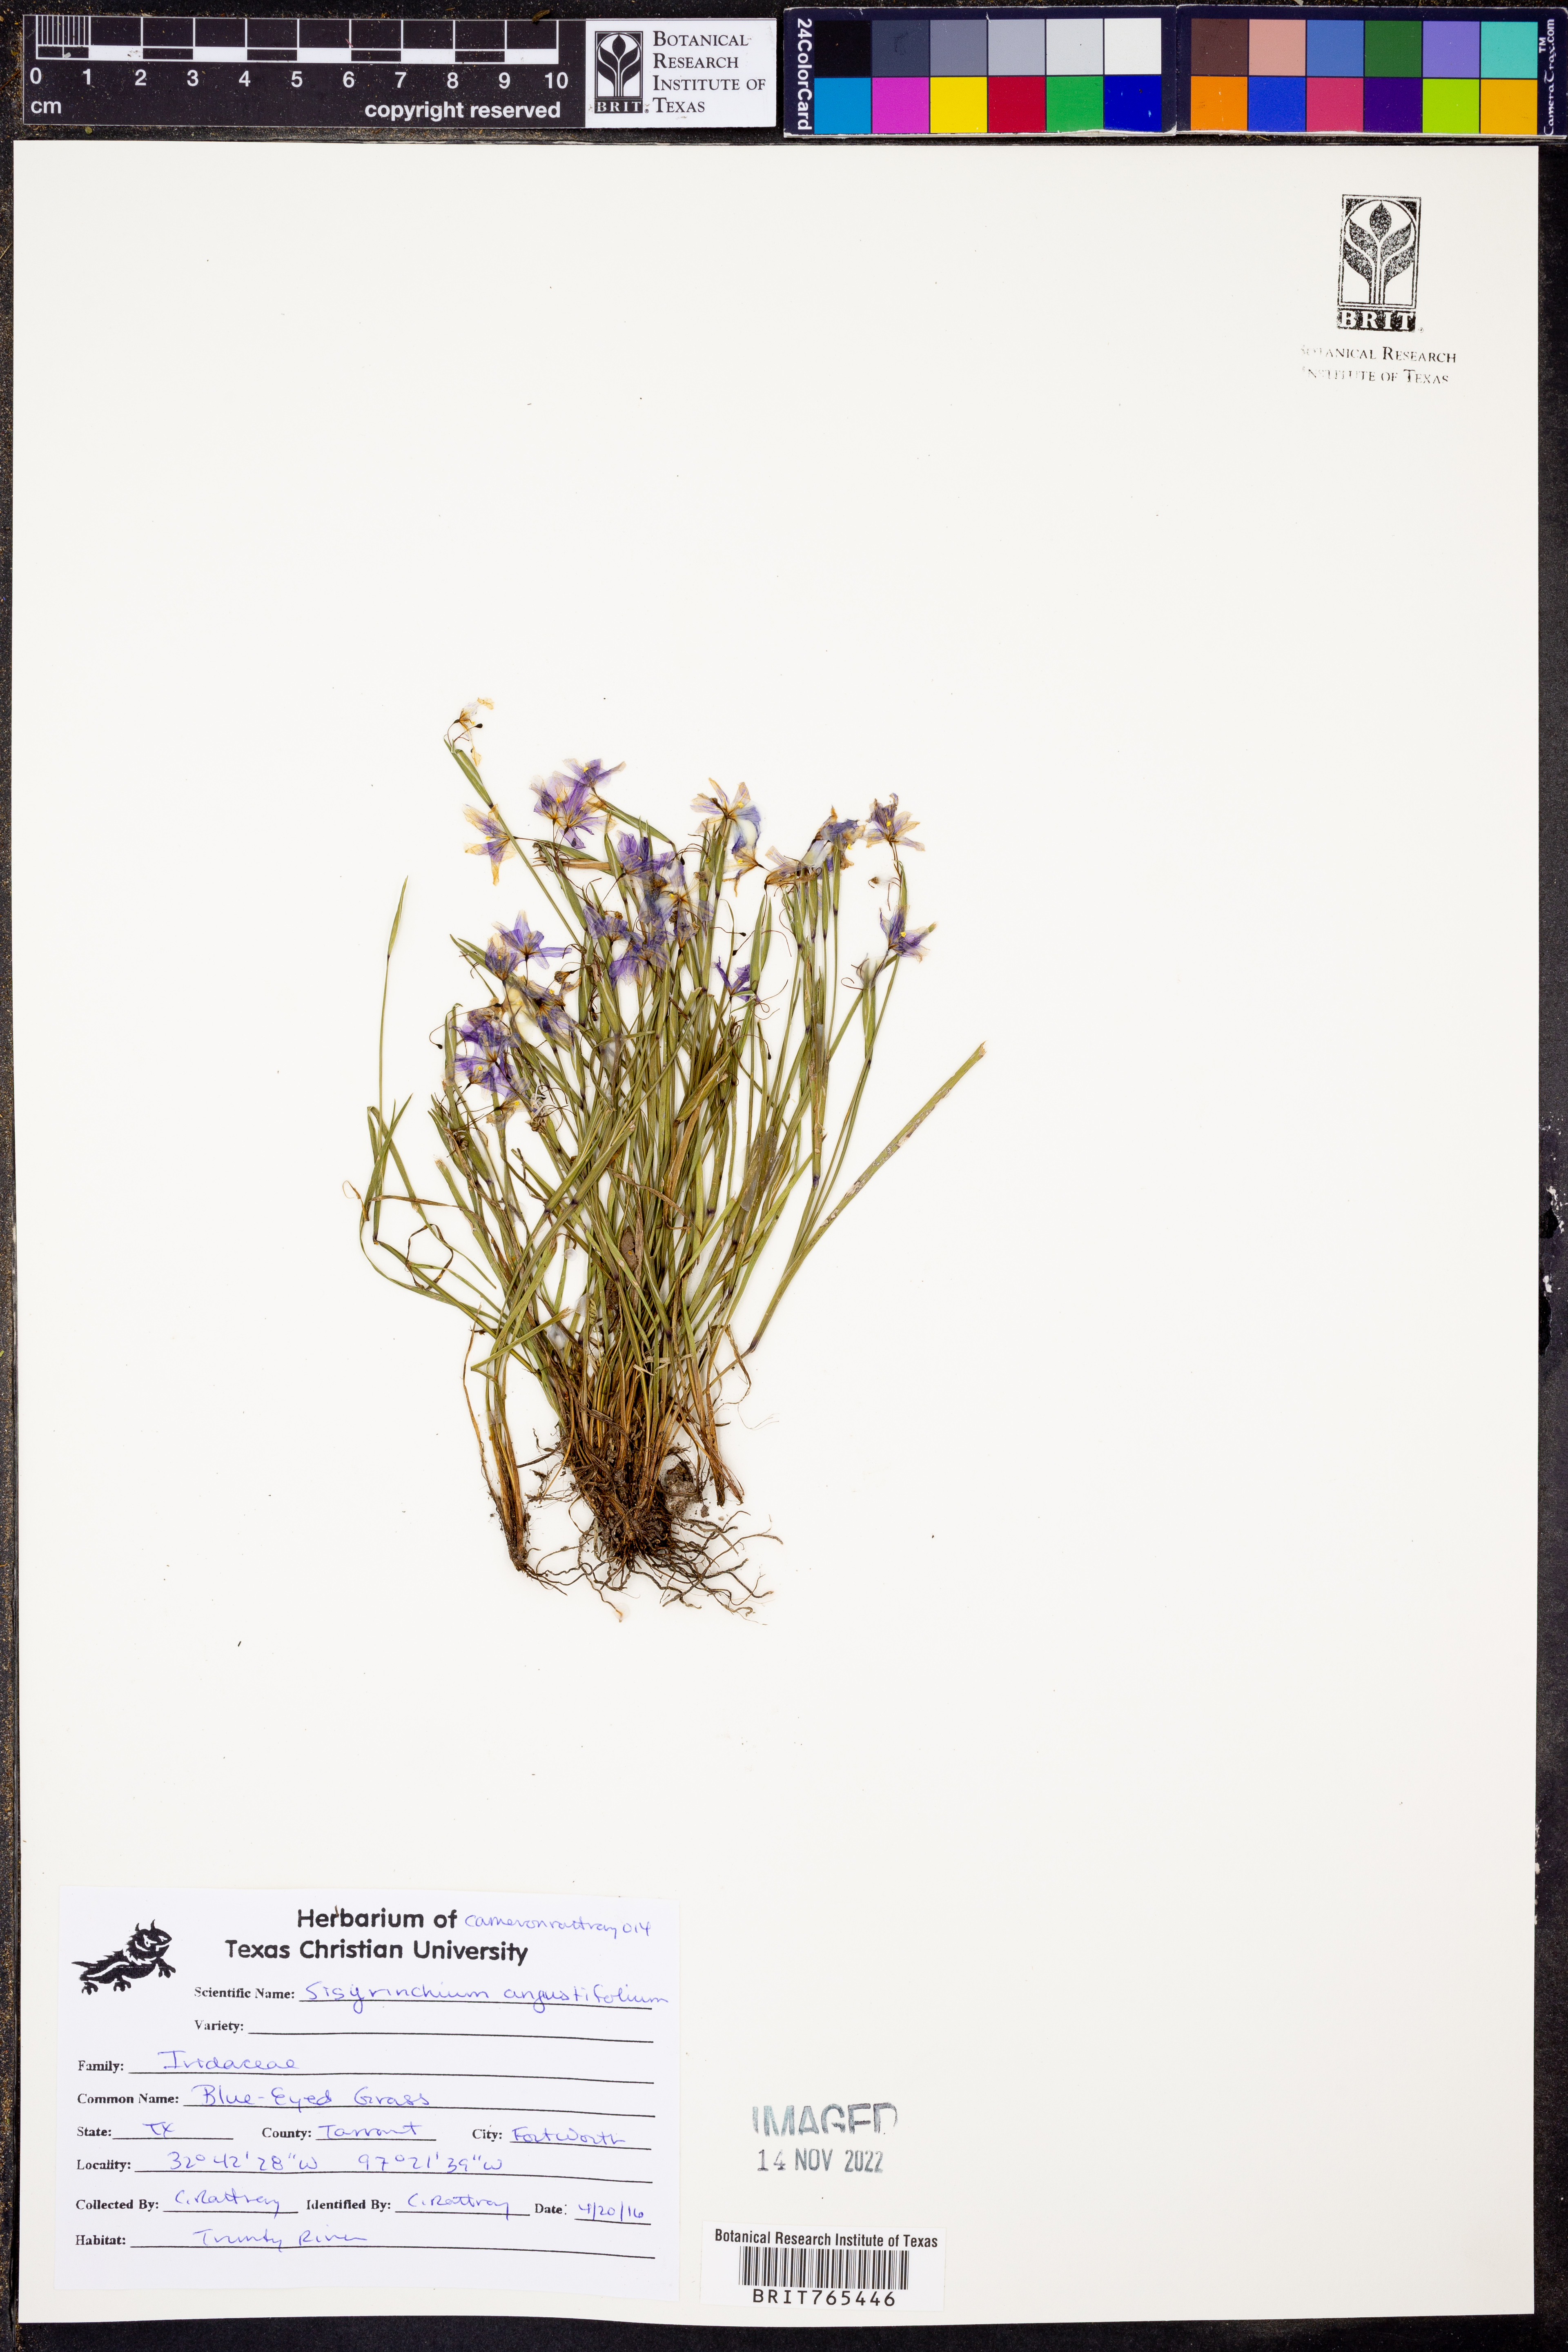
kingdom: Plantae
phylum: Tracheophyta
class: Liliopsida
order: Asparagales
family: Iridaceae
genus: Sisyrinchium
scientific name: Sisyrinchium angustifolium
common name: Narrow-leaf blue-eyed-grass
